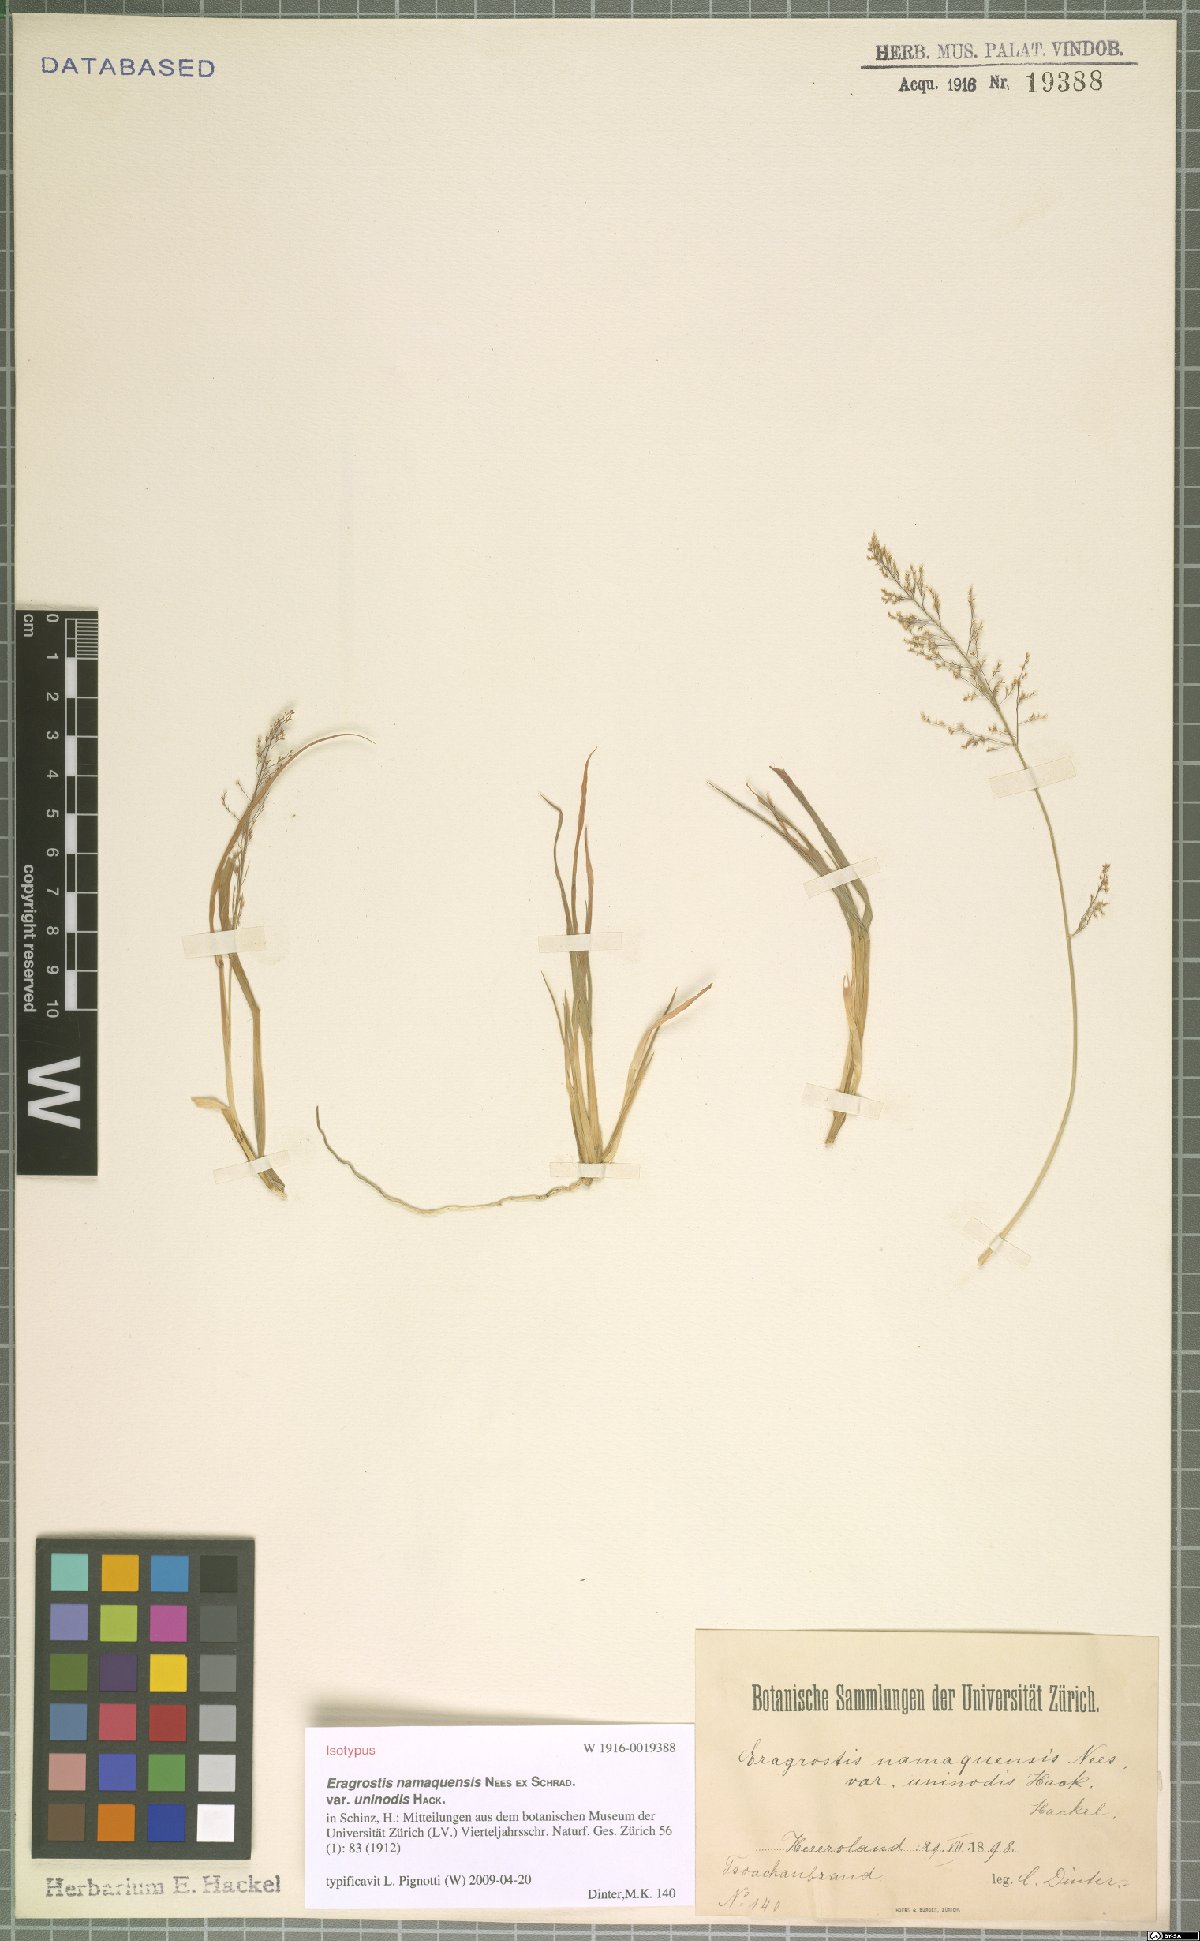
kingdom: Plantae
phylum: Tracheophyta
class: Liliopsida
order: Poales
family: Poaceae
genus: Eragrostis
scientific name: Eragrostis namaquensis
